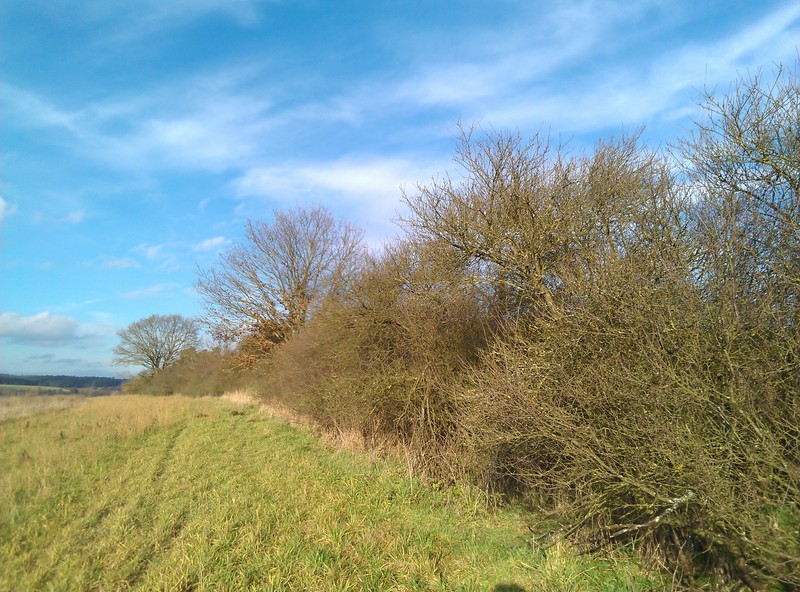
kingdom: Fungi
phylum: Ascomycota
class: Lecanoromycetes
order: Caliciales
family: Physciaceae
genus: Physcia
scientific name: Physcia tenella
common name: Fringed rosette lichen
